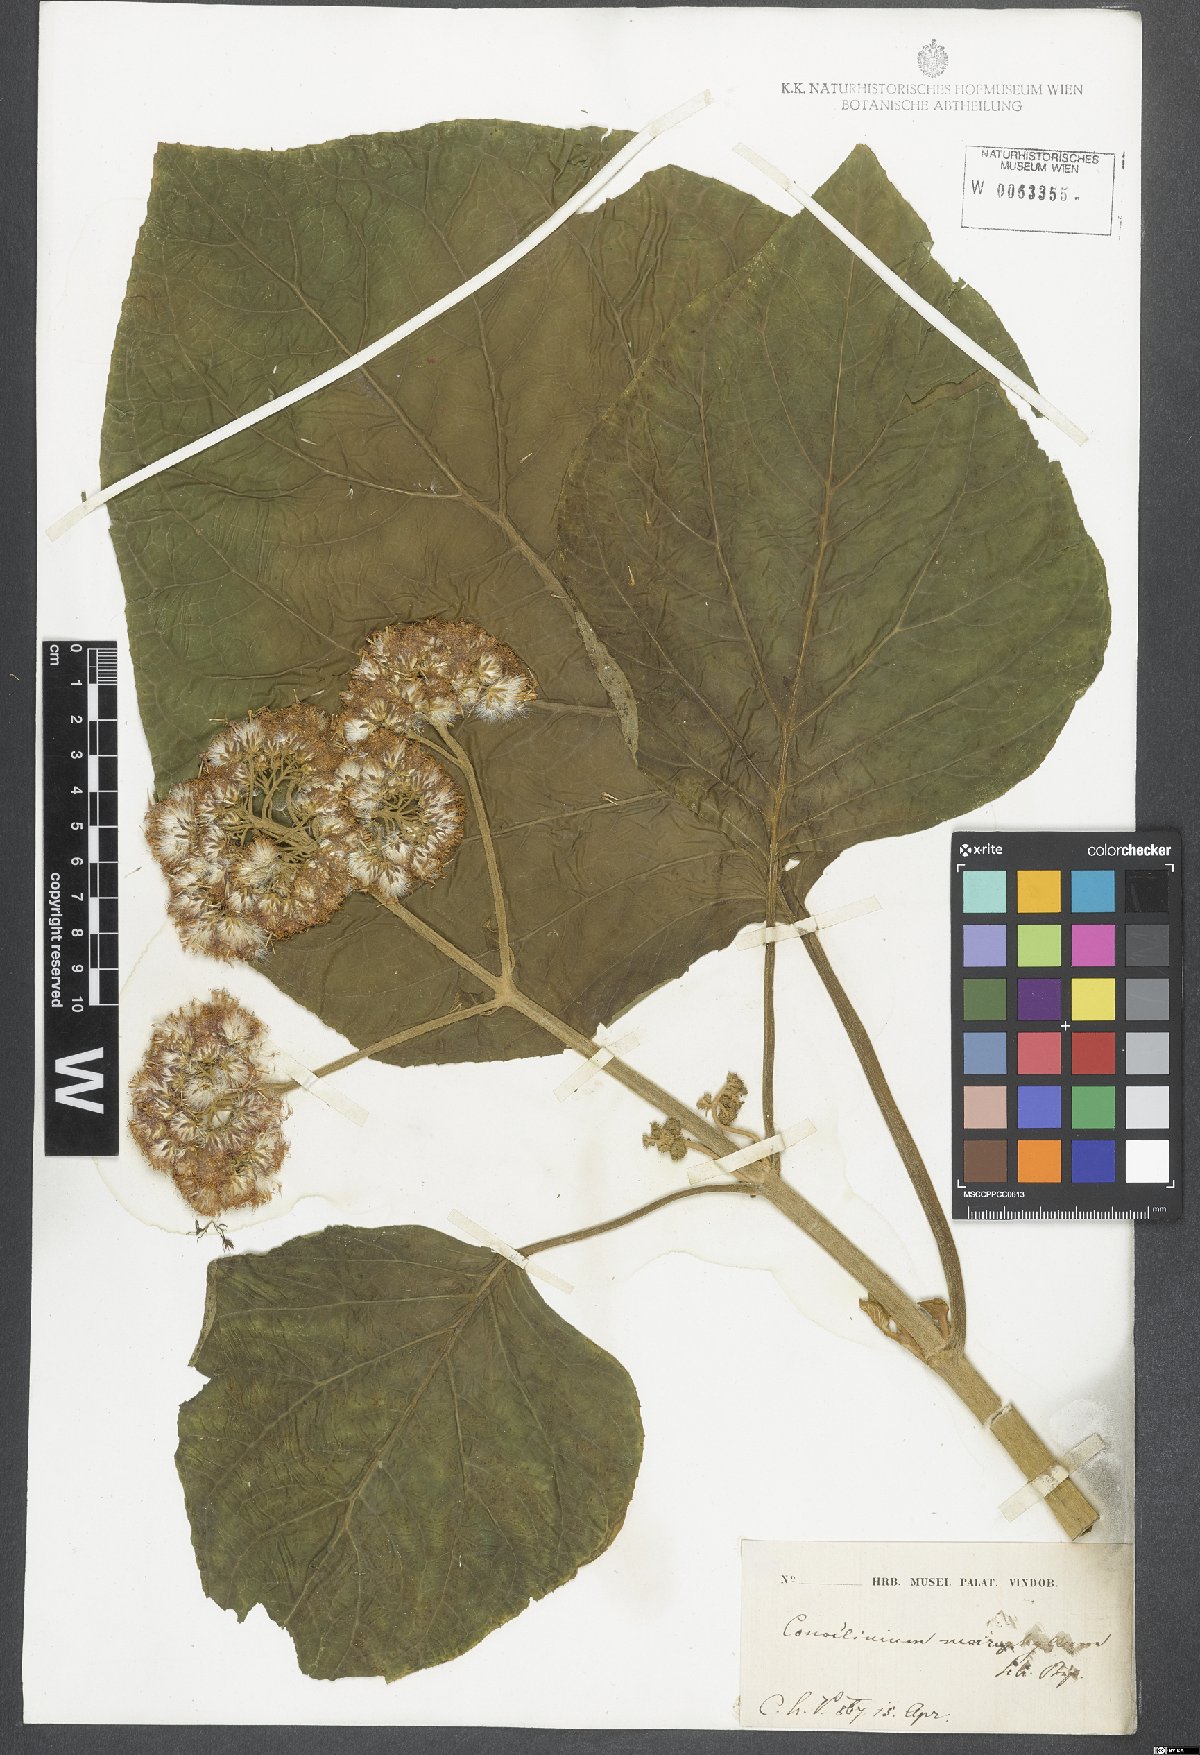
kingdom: Plantae
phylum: Tracheophyta
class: Magnoliopsida
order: Asterales
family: Asteraceae
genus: Hebeclinium
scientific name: Hebeclinium macrophyllum
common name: Largeleaf thoroughwort
